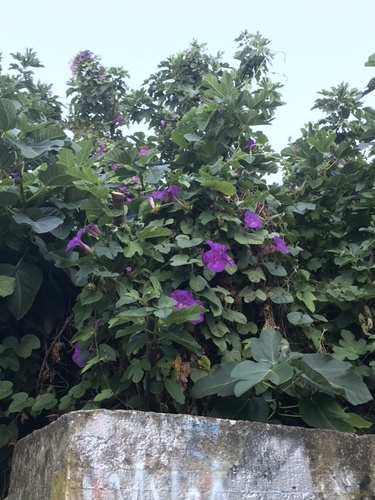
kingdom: Plantae
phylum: Tracheophyta
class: Magnoliopsida
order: Solanales
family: Convolvulaceae
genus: Ipomoea
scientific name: Ipomoea indica
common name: Blue dawnflower
